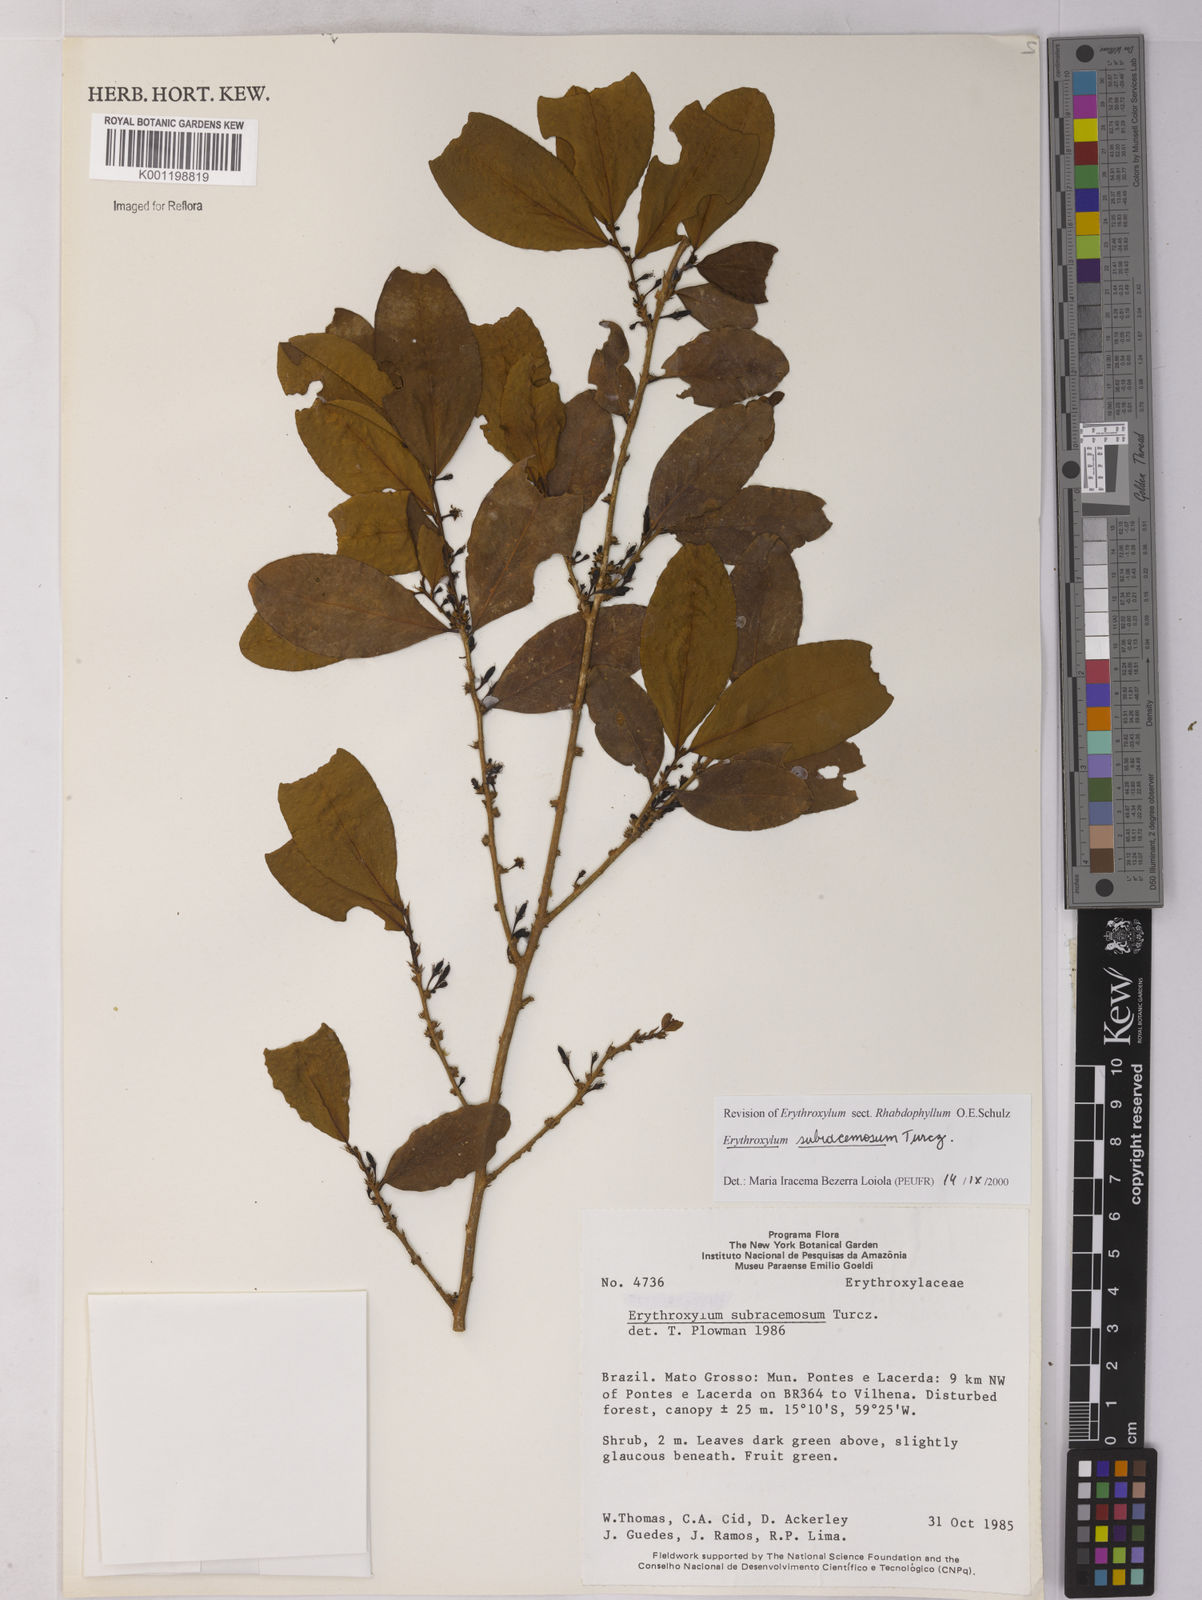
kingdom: Plantae
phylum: Tracheophyta
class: Magnoliopsida
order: Malpighiales
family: Erythroxylaceae
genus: Erythroxylum
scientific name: Erythroxylum subracemosum
